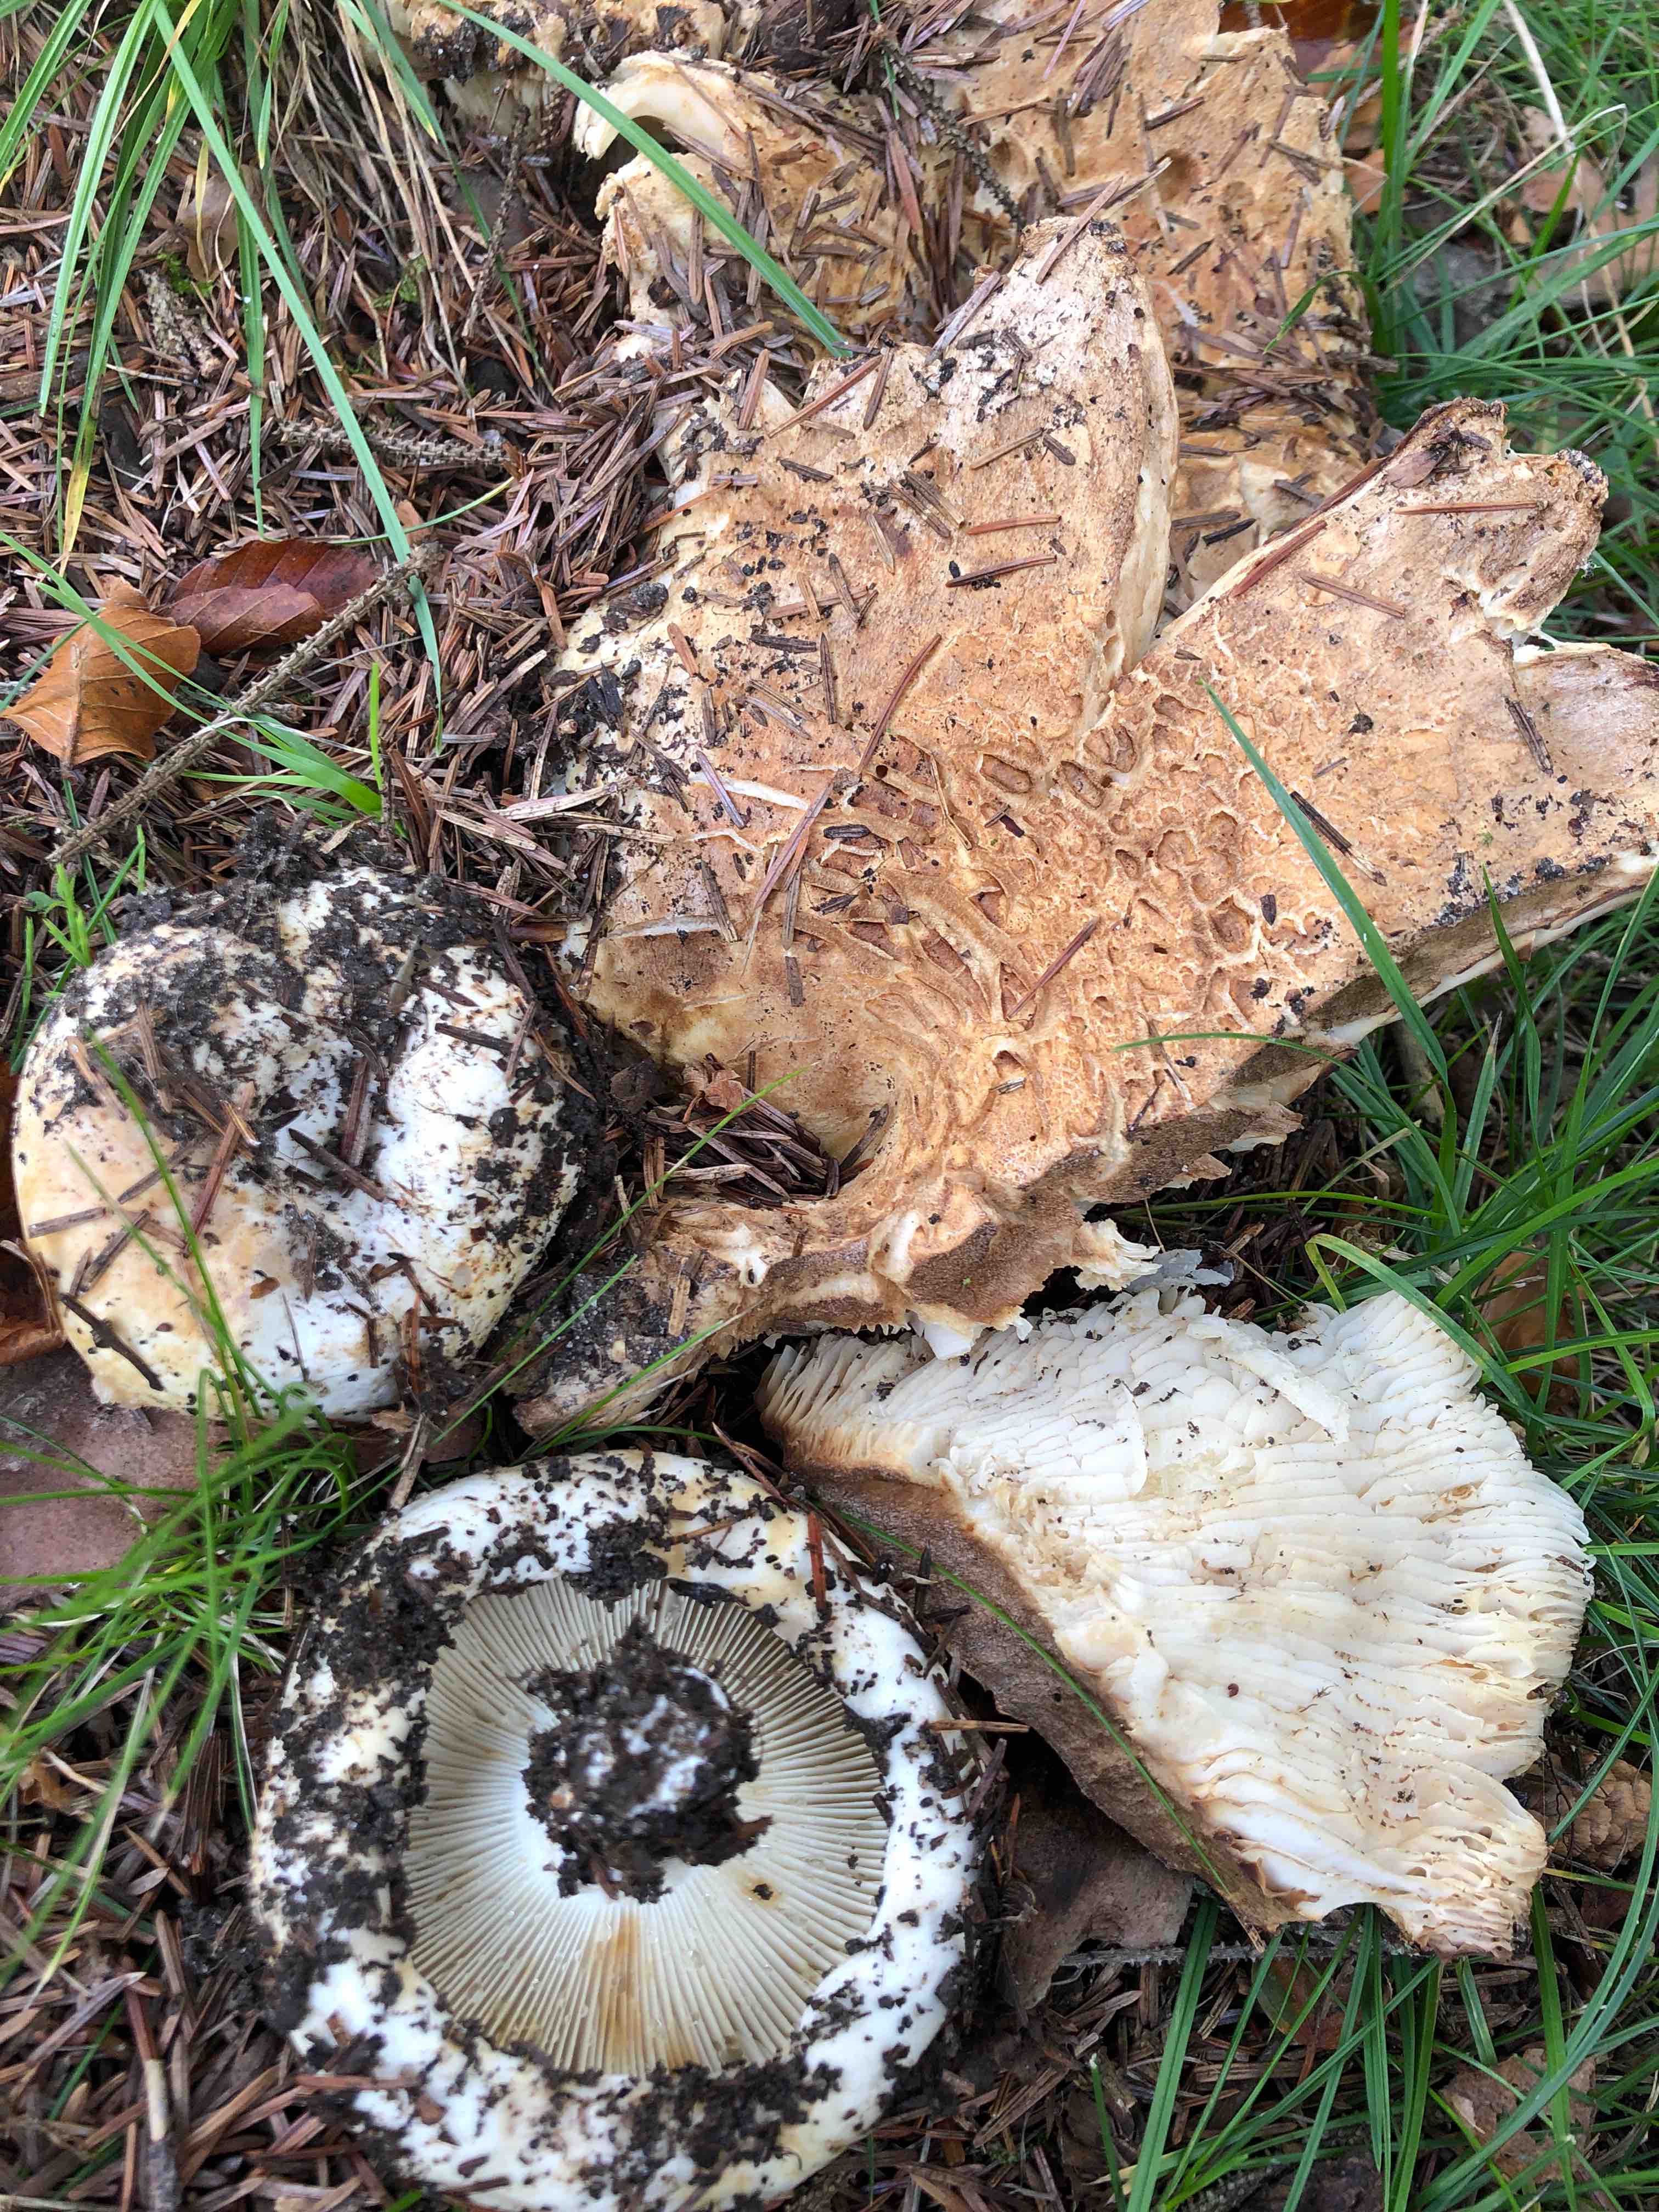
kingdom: Fungi
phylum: Basidiomycota
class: Agaricomycetes
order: Russulales
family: Russulaceae
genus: Russula
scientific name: Russula delica
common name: almindelig tragt-skørhat
